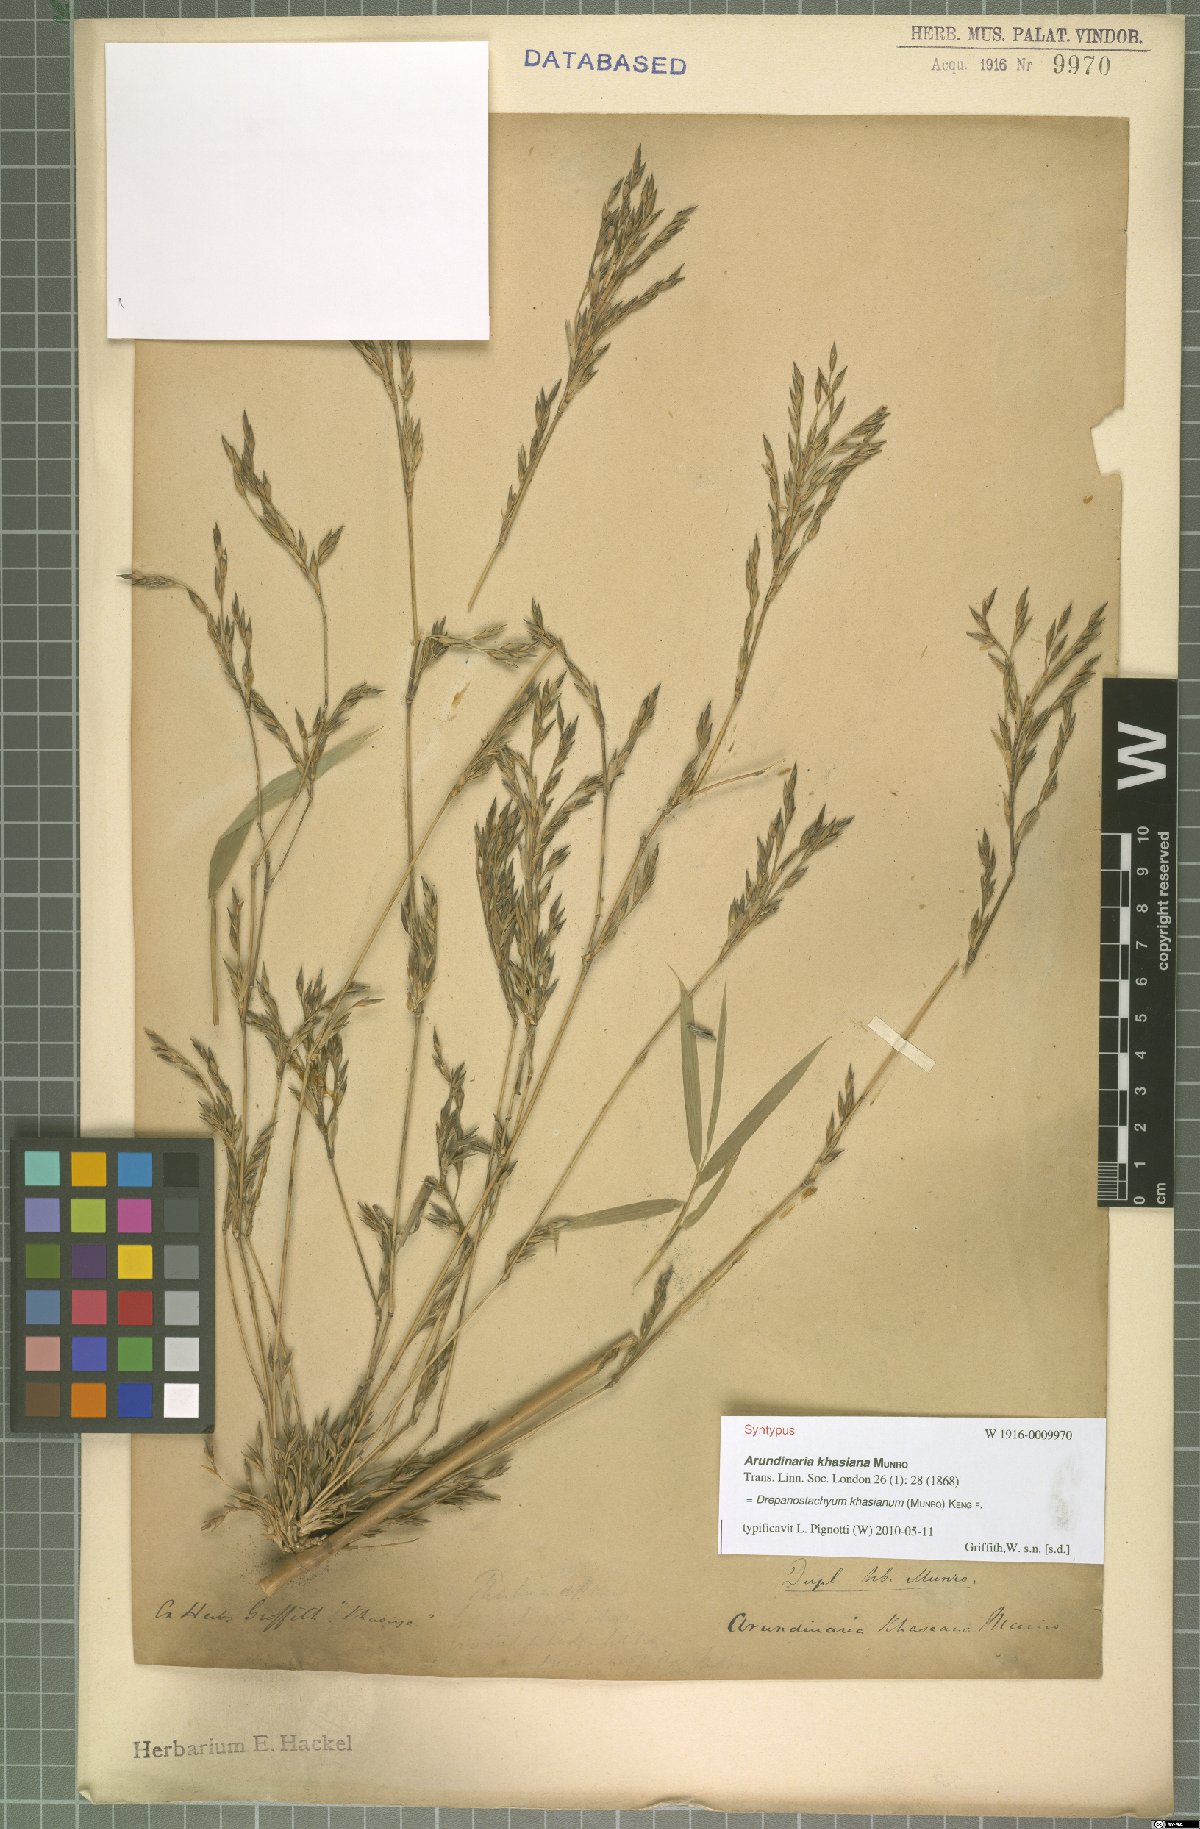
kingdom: Plantae
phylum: Tracheophyta
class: Liliopsida
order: Poales
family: Poaceae
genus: Drepanostachyum
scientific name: Drepanostachyum khasianum
